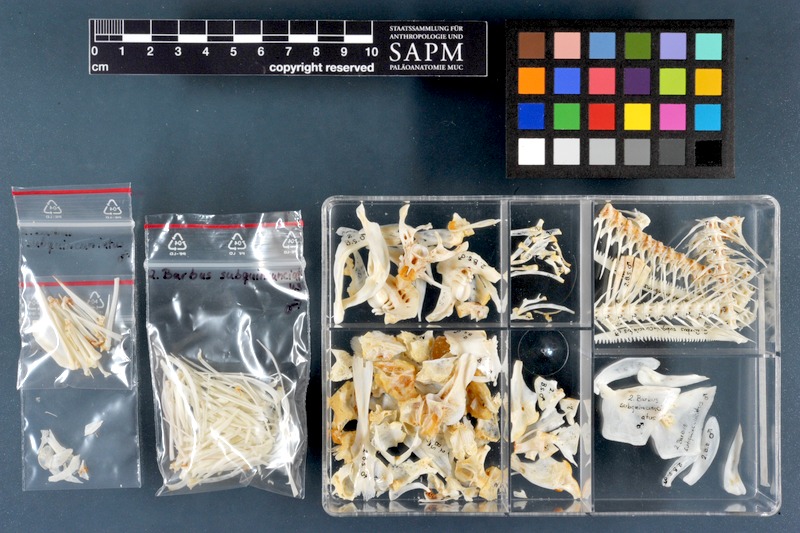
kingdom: Animalia
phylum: Chordata
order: Cypriniformes
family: Cyprinidae
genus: Luciobarbus
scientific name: Luciobarbus subquincunciatus
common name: Leopard barbel
